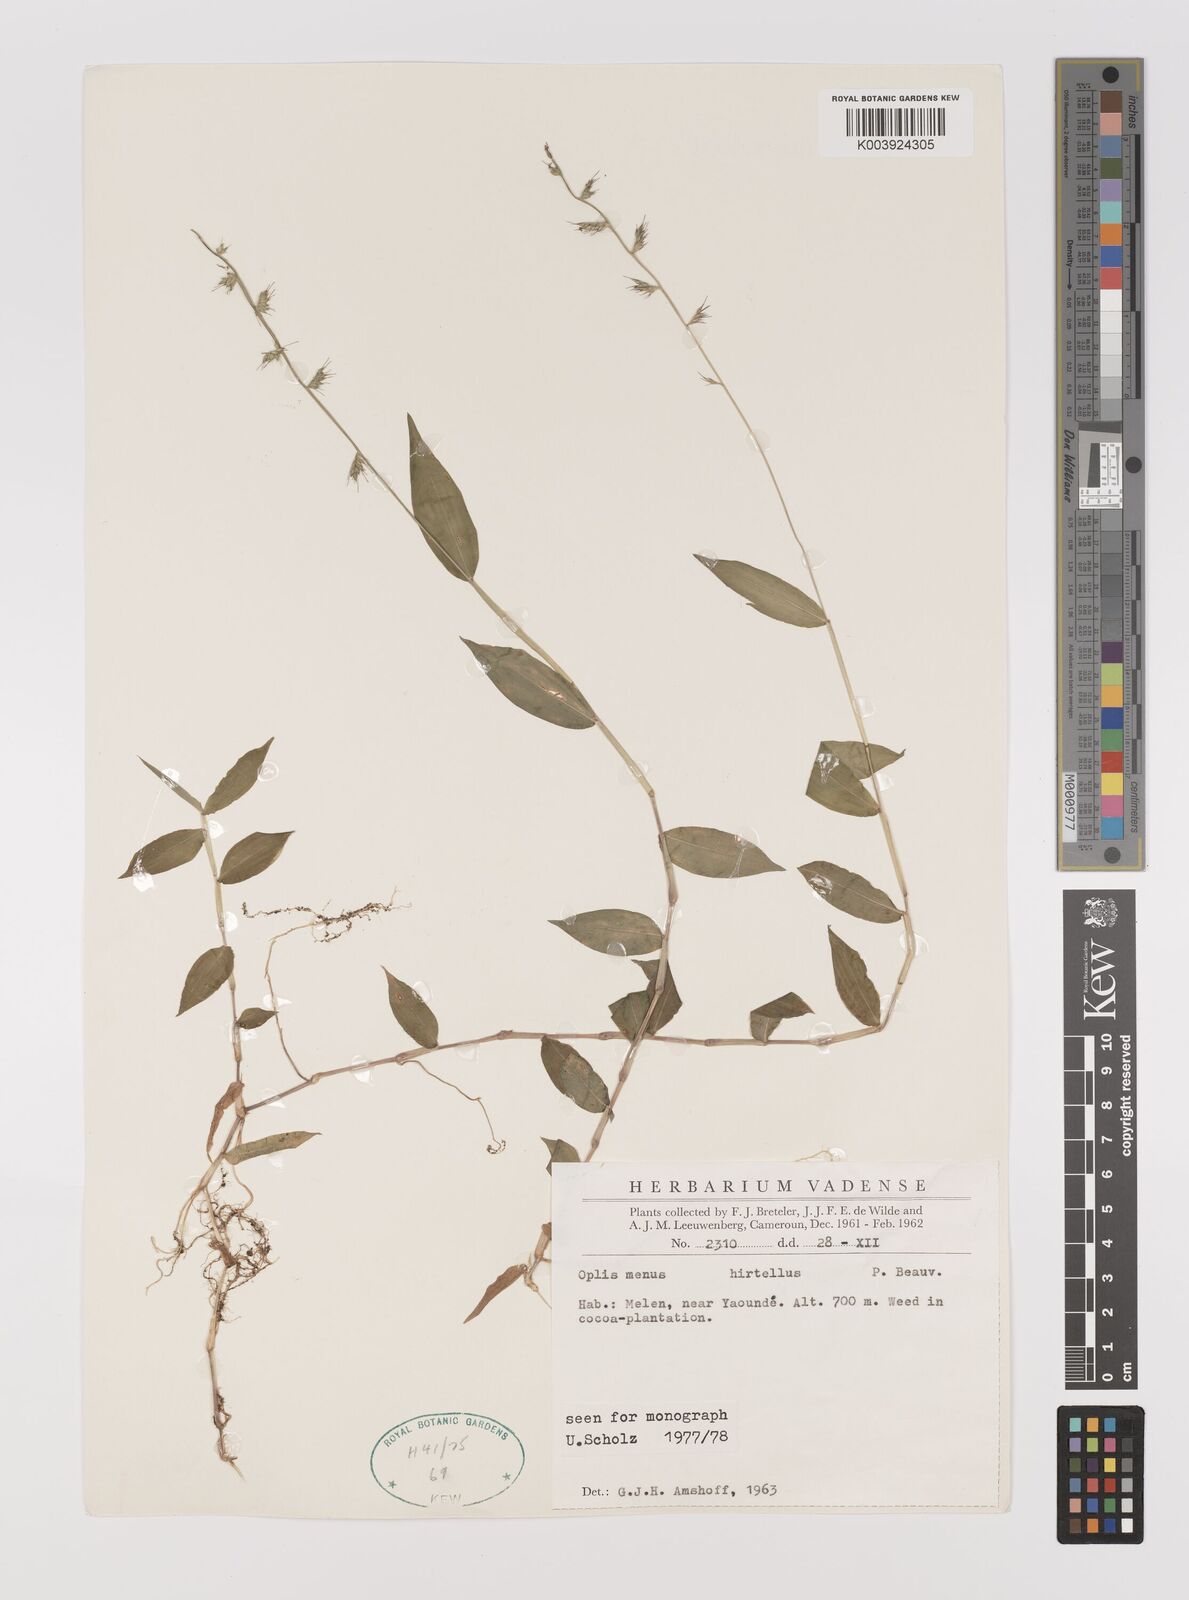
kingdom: Plantae
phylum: Tracheophyta
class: Liliopsida
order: Poales
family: Poaceae
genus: Oplismenus
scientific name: Oplismenus hirtellus
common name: Basketgrass
